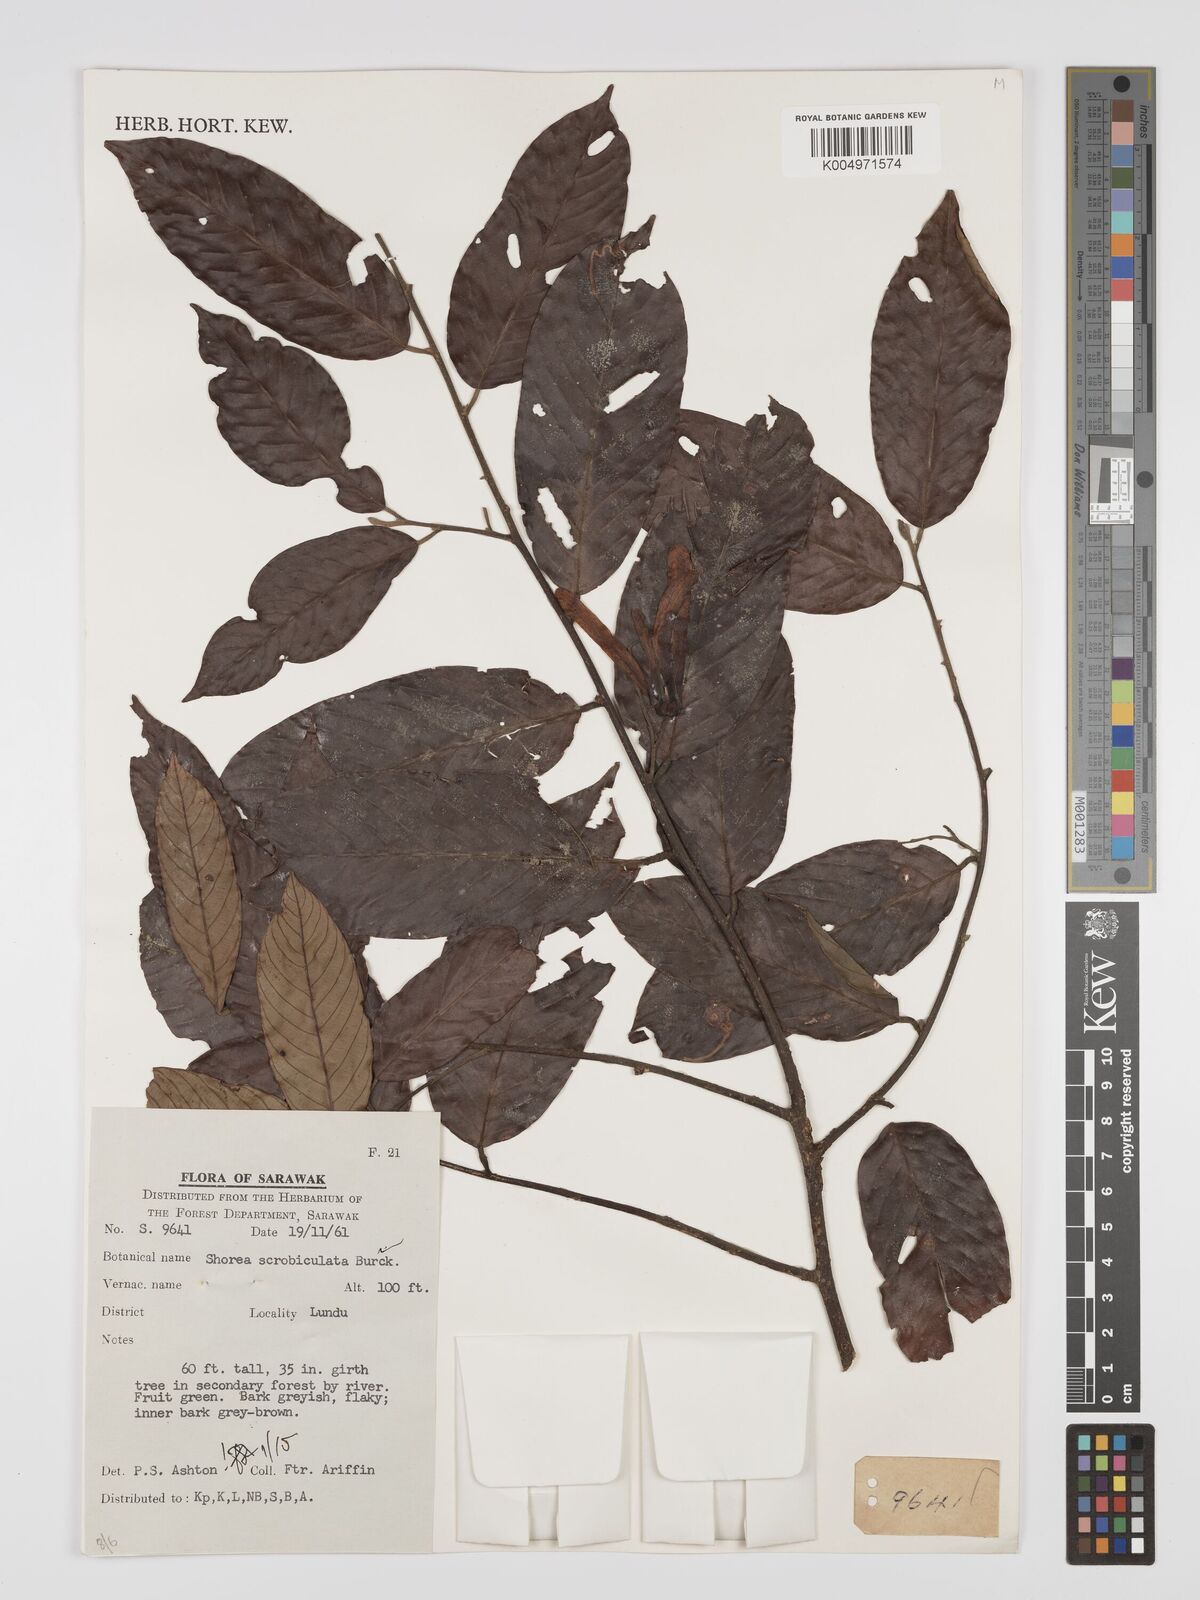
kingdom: Plantae
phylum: Tracheophyta
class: Magnoliopsida
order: Malvales
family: Dipterocarpaceae
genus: Shorea
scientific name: Shorea scrobiculata
